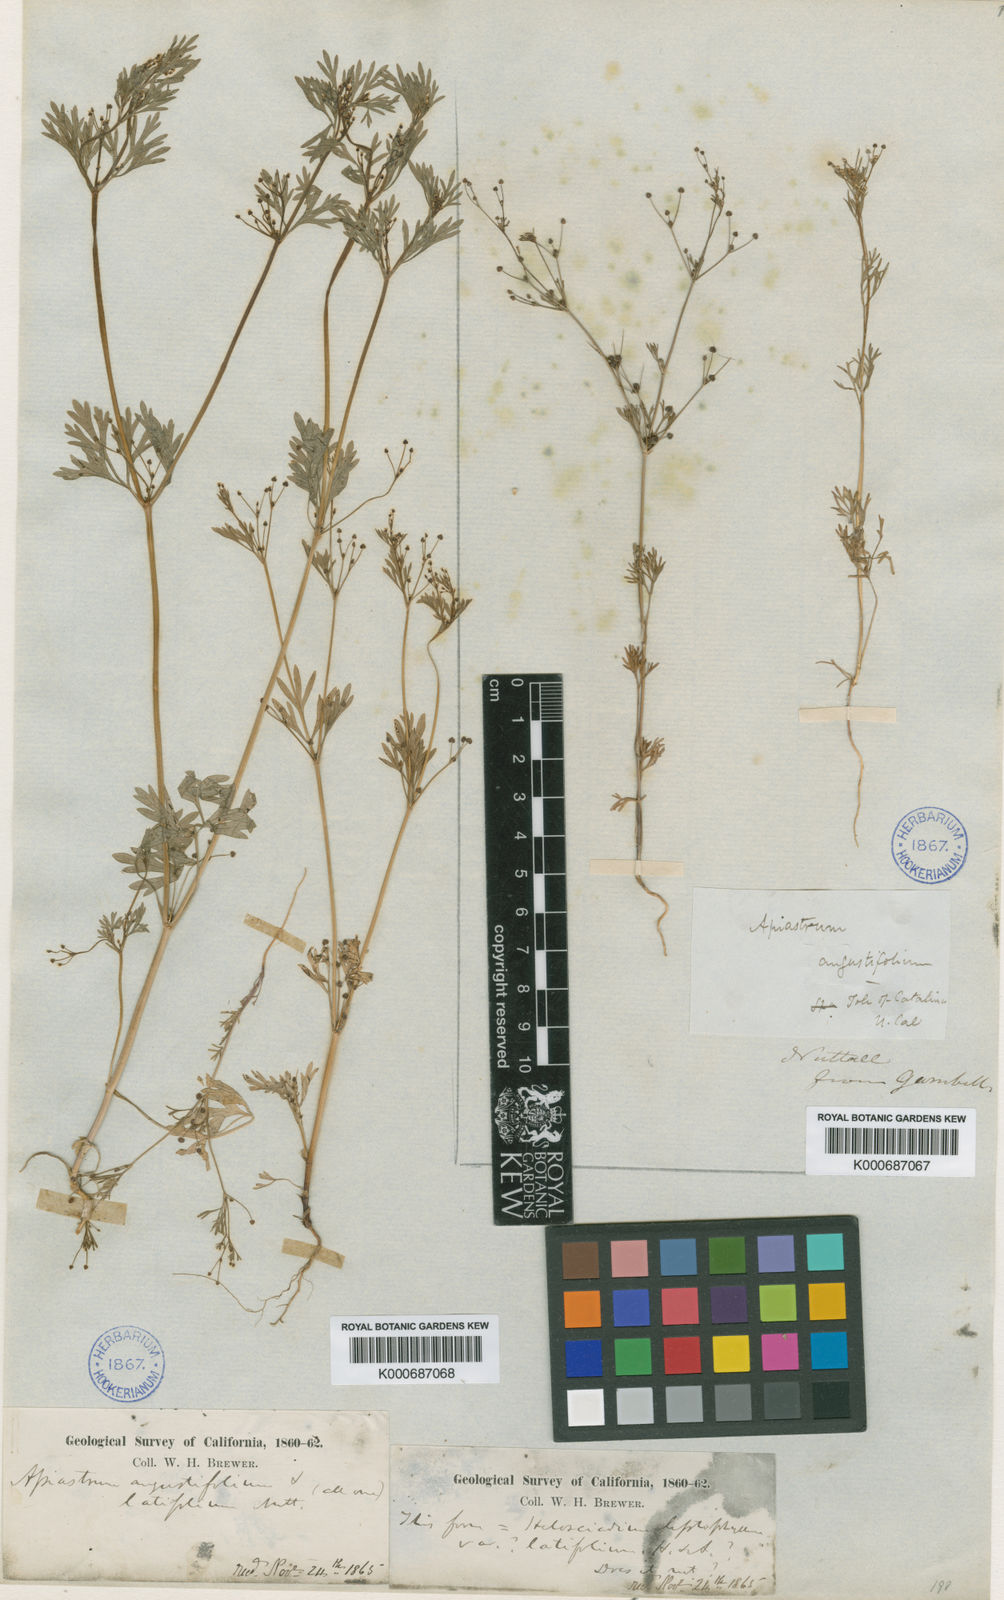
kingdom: Plantae
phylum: Tracheophyta
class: Magnoliopsida
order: Apiales
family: Apiaceae
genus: Ammoselinum
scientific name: Ammoselinum
